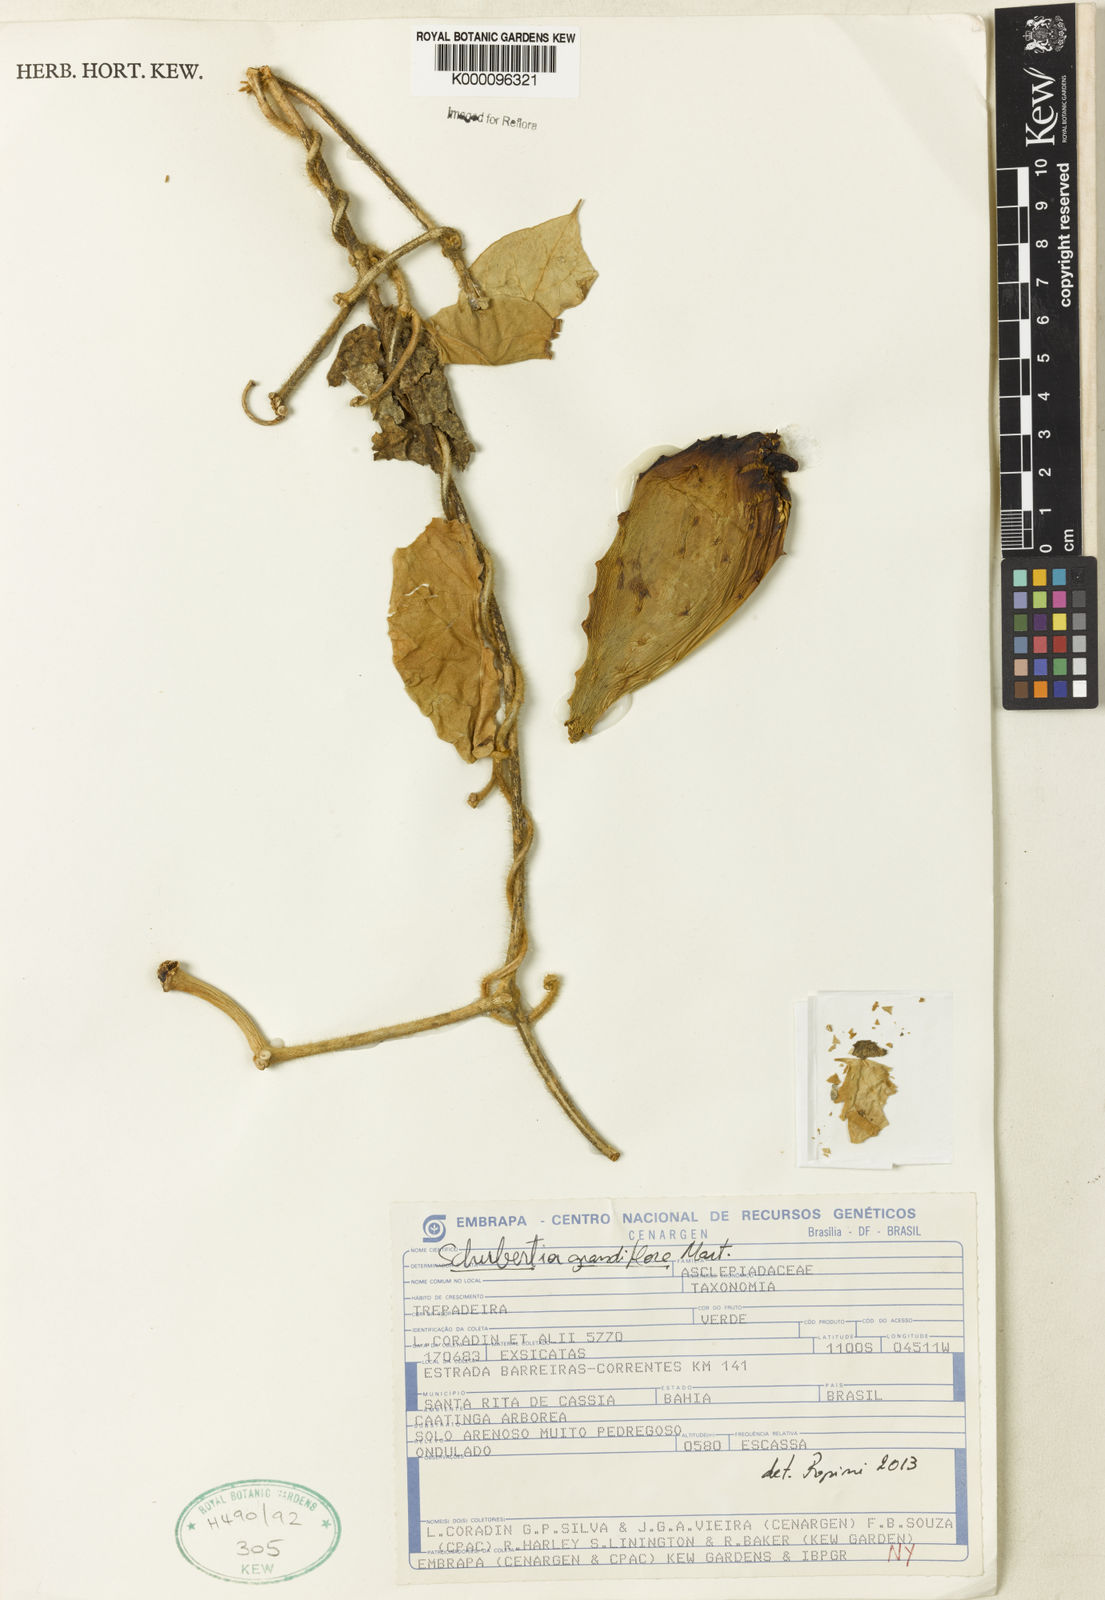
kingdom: Plantae
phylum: Tracheophyta
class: Magnoliopsida
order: Gentianales
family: Apocynaceae
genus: Macroscepis
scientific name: Macroscepis grandiflora
